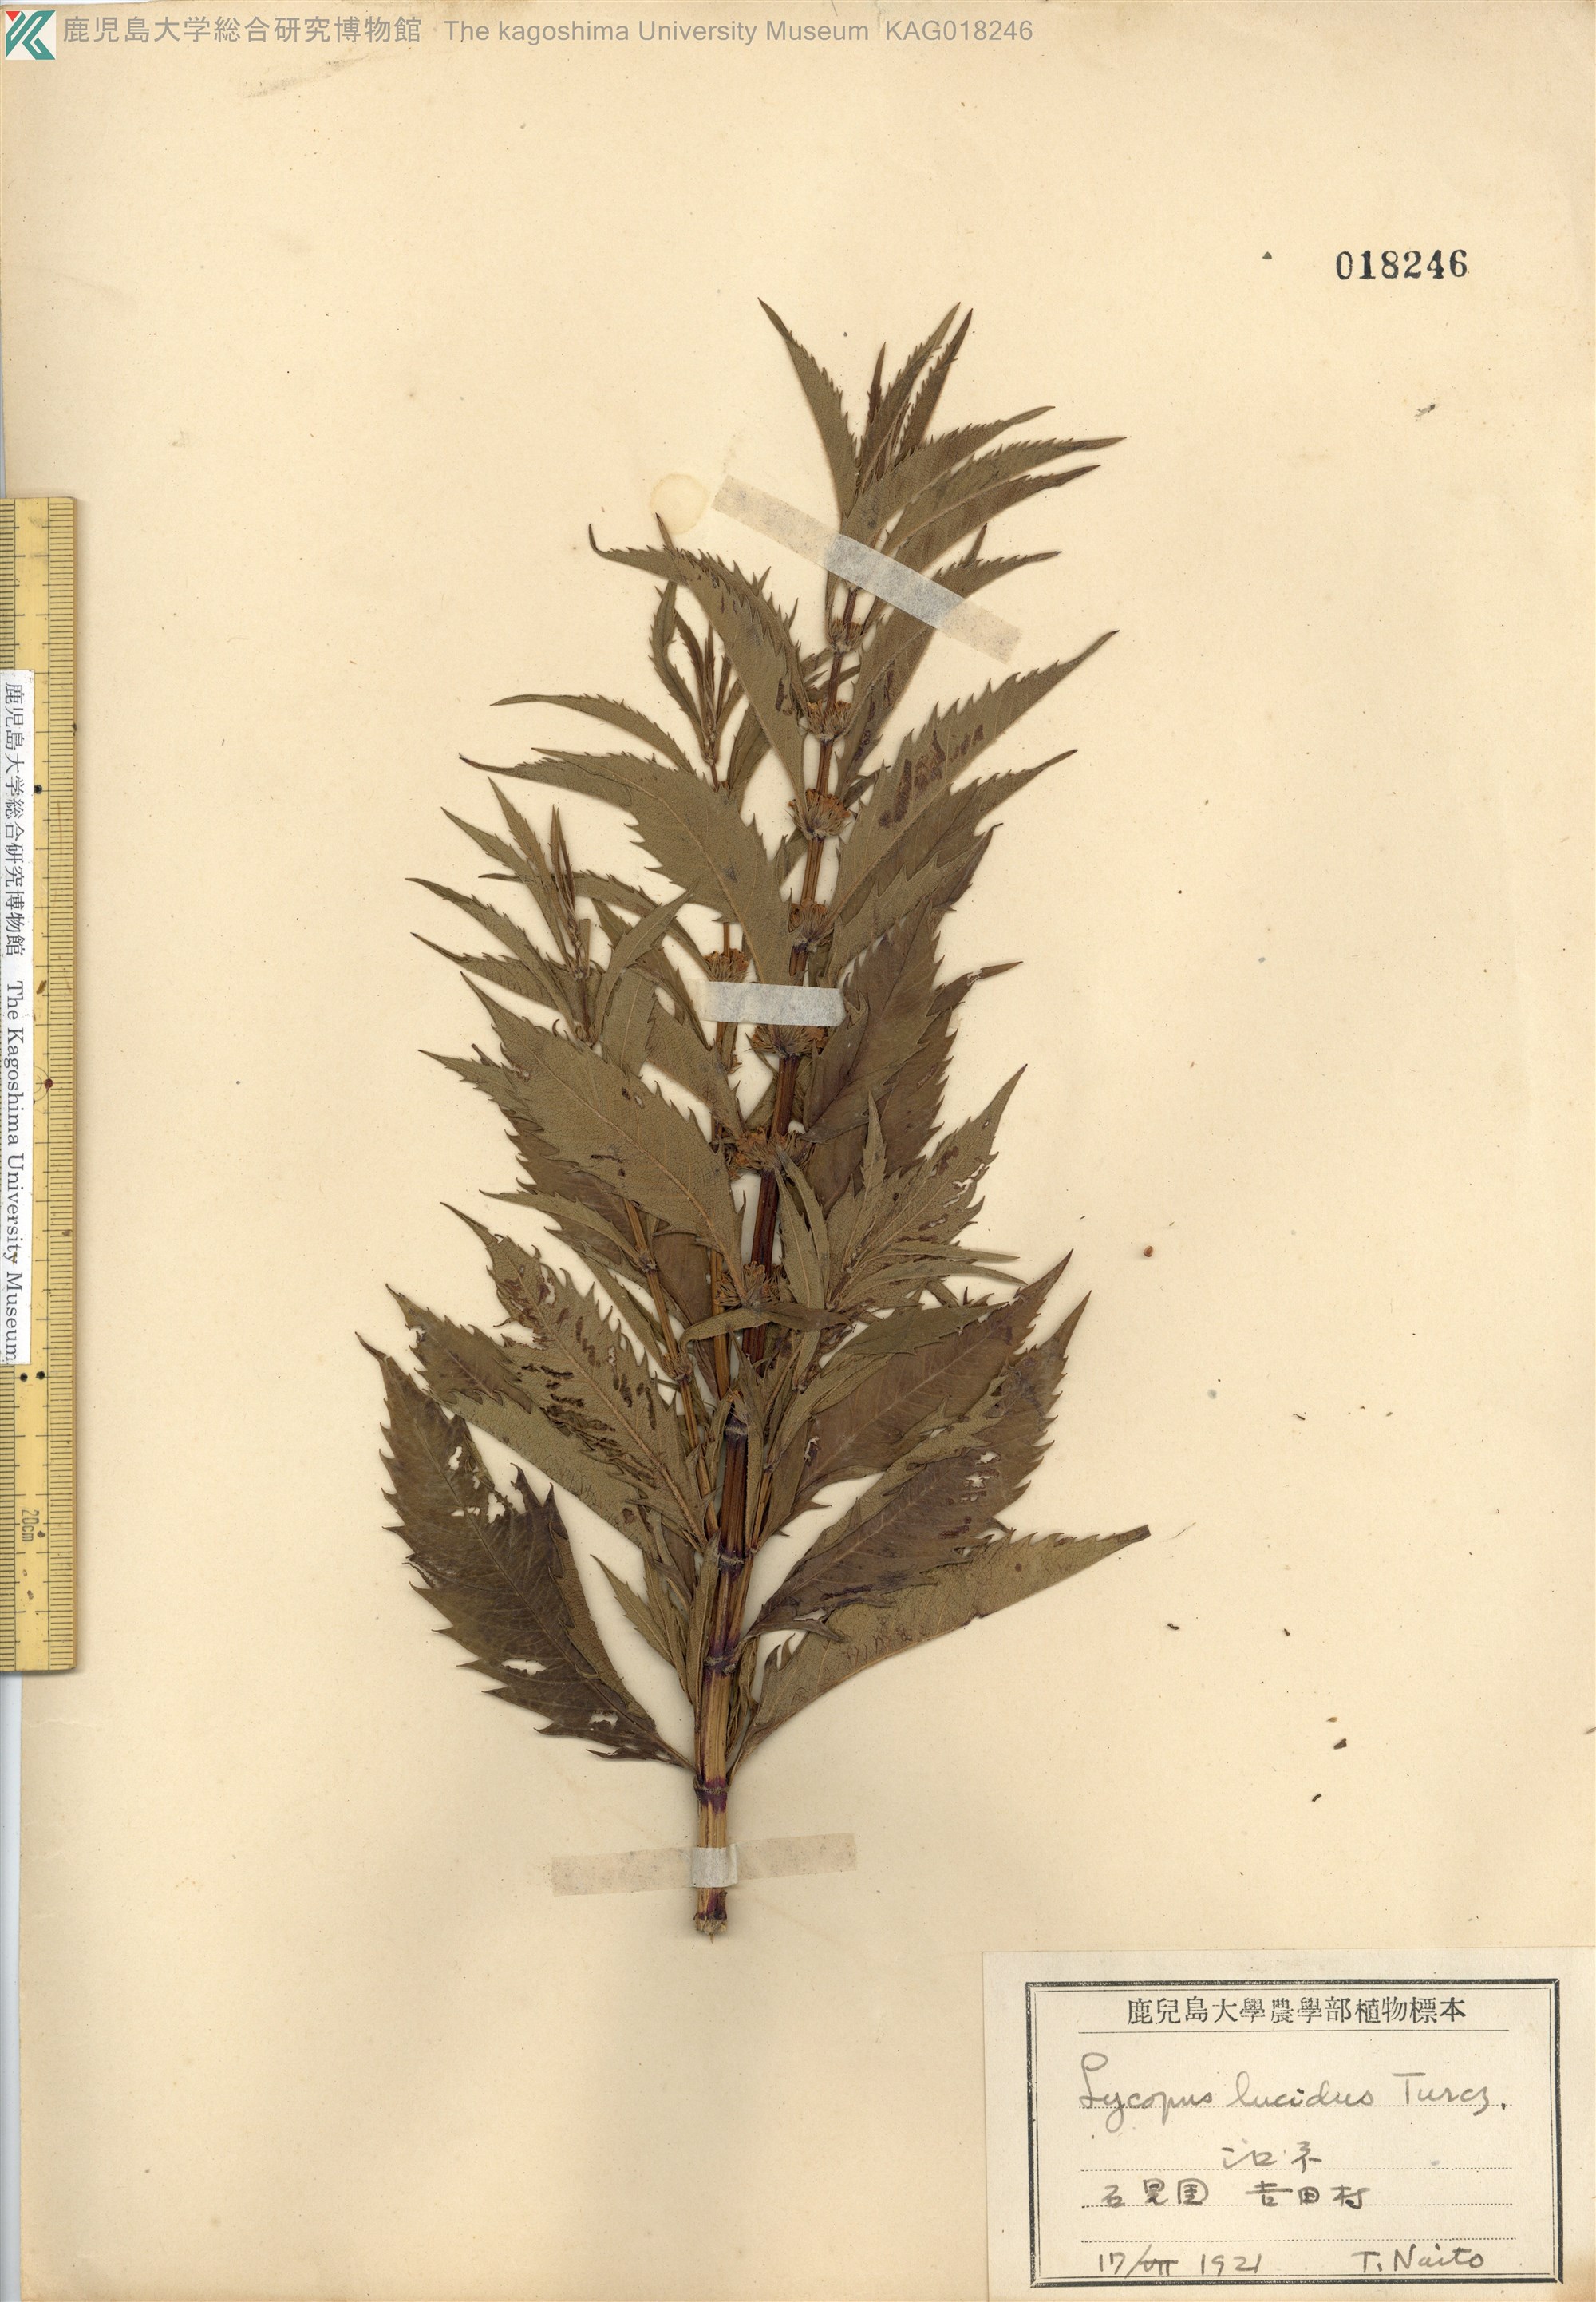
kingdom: Plantae
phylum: Tracheophyta
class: Magnoliopsida
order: Lamiales
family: Lamiaceae
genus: Lycopus
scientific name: Lycopus lucidus
